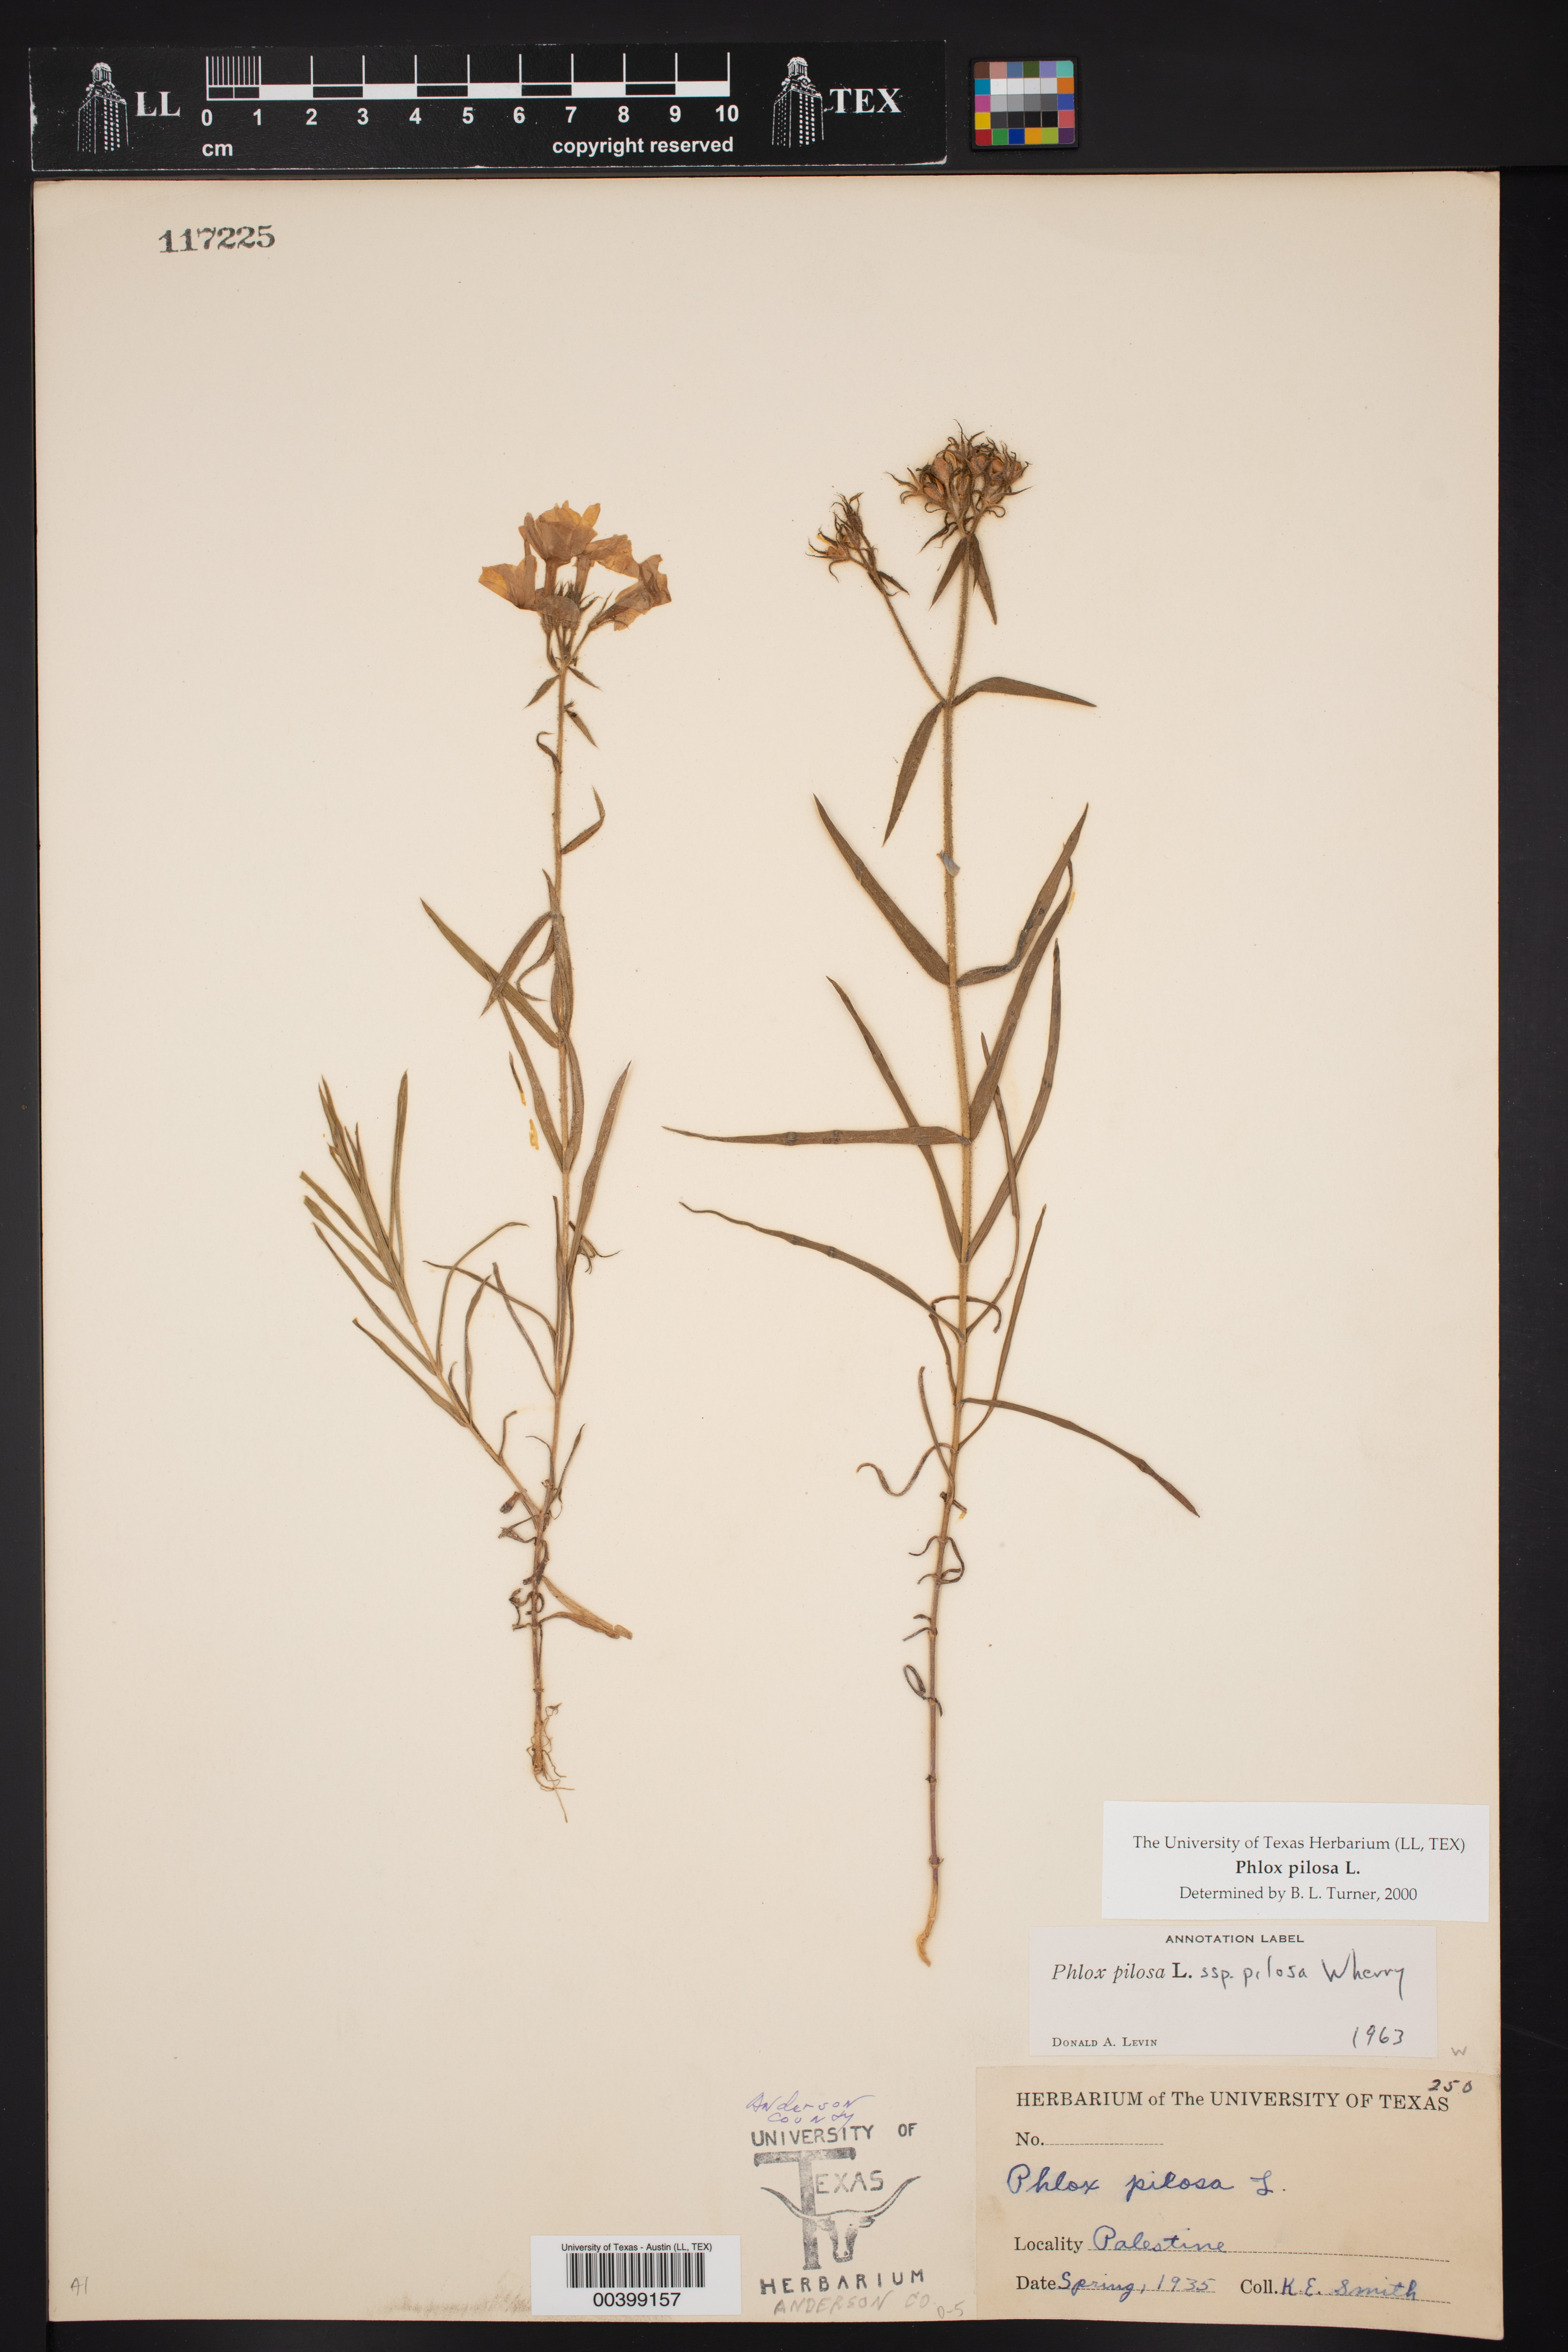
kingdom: Plantae
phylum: Tracheophyta
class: Magnoliopsida
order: Ericales
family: Polemoniaceae
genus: Phlox
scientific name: Phlox pilosa
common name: Prairie phlox
